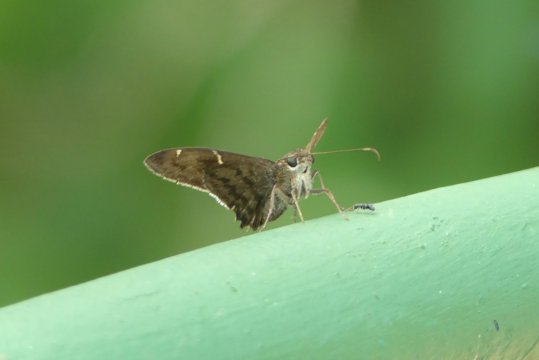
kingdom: Animalia
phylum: Arthropoda
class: Insecta
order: Lepidoptera
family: Hesperiidae
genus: Urbanus
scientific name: Urbanus tanna
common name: Tanna Longtail
